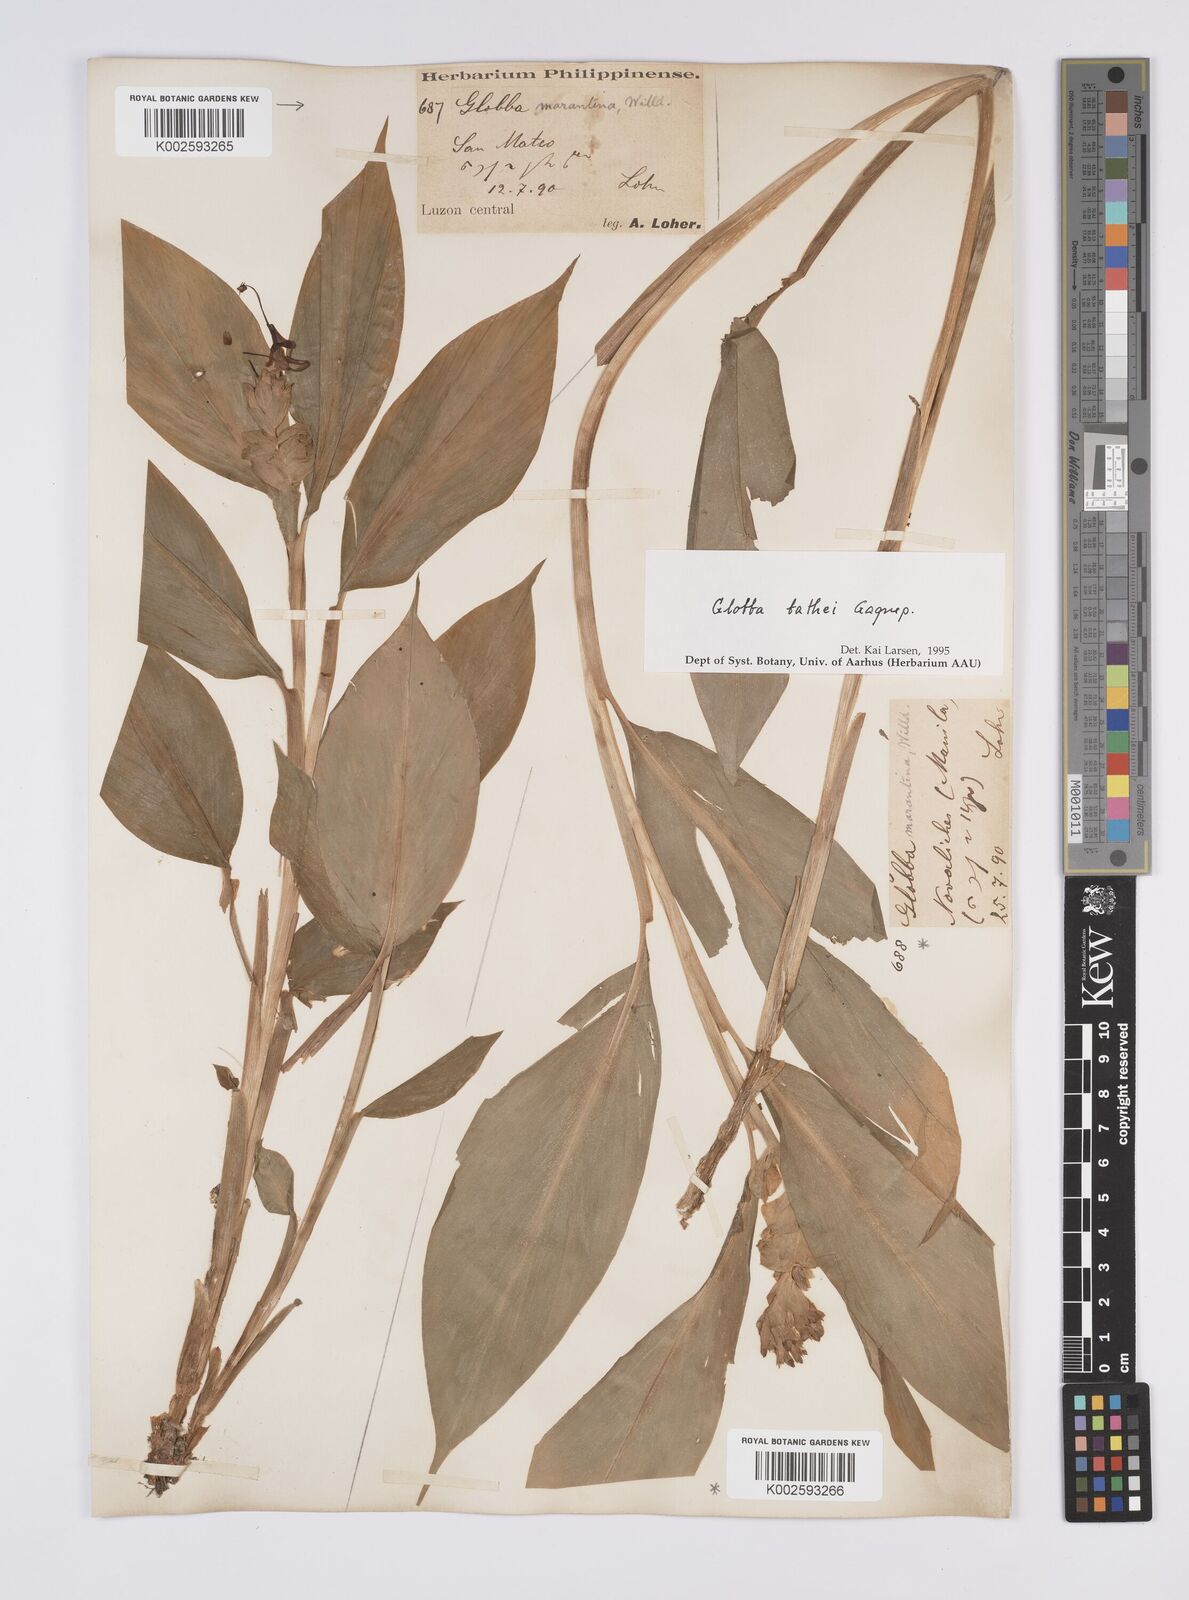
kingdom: Plantae
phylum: Tracheophyta
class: Liliopsida
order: Zingiberales
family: Zingiberaceae
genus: Globba
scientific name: Globba marantina
